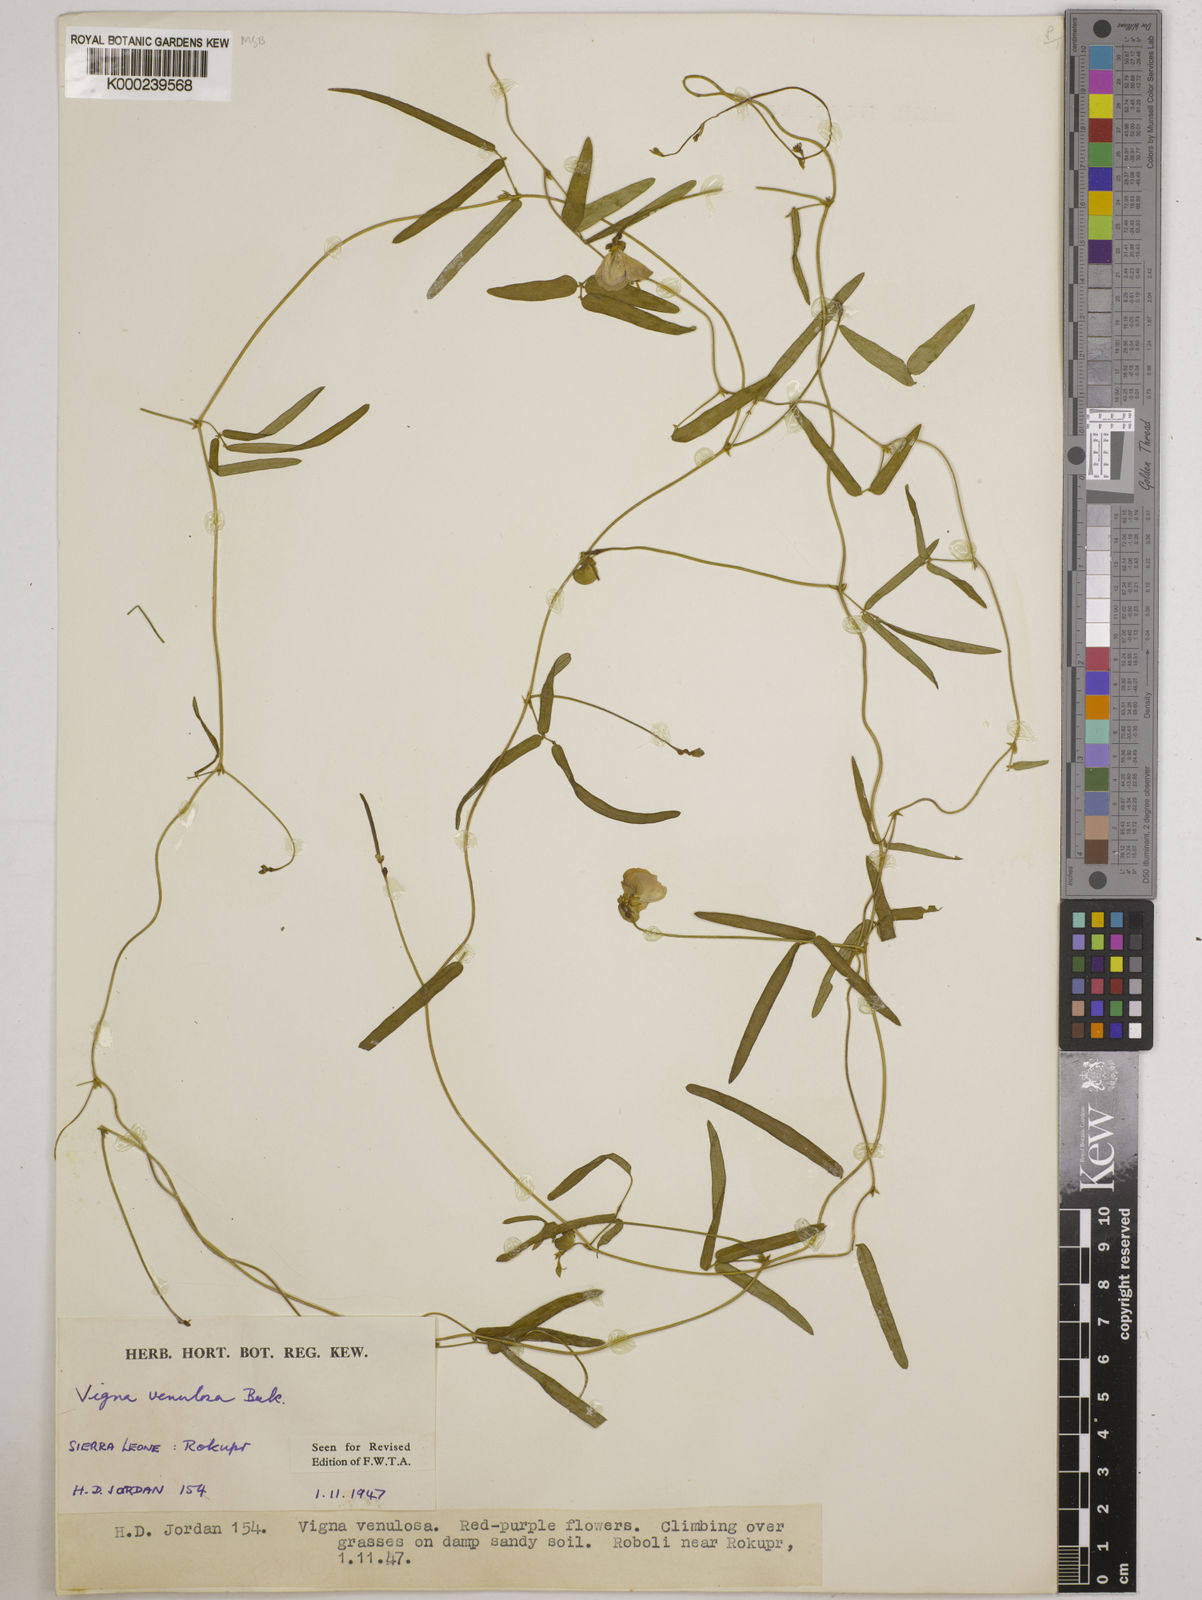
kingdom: Plantae
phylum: Tracheophyta
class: Magnoliopsida
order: Fabales
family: Fabaceae
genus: Vigna
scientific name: Vigna venulosa
